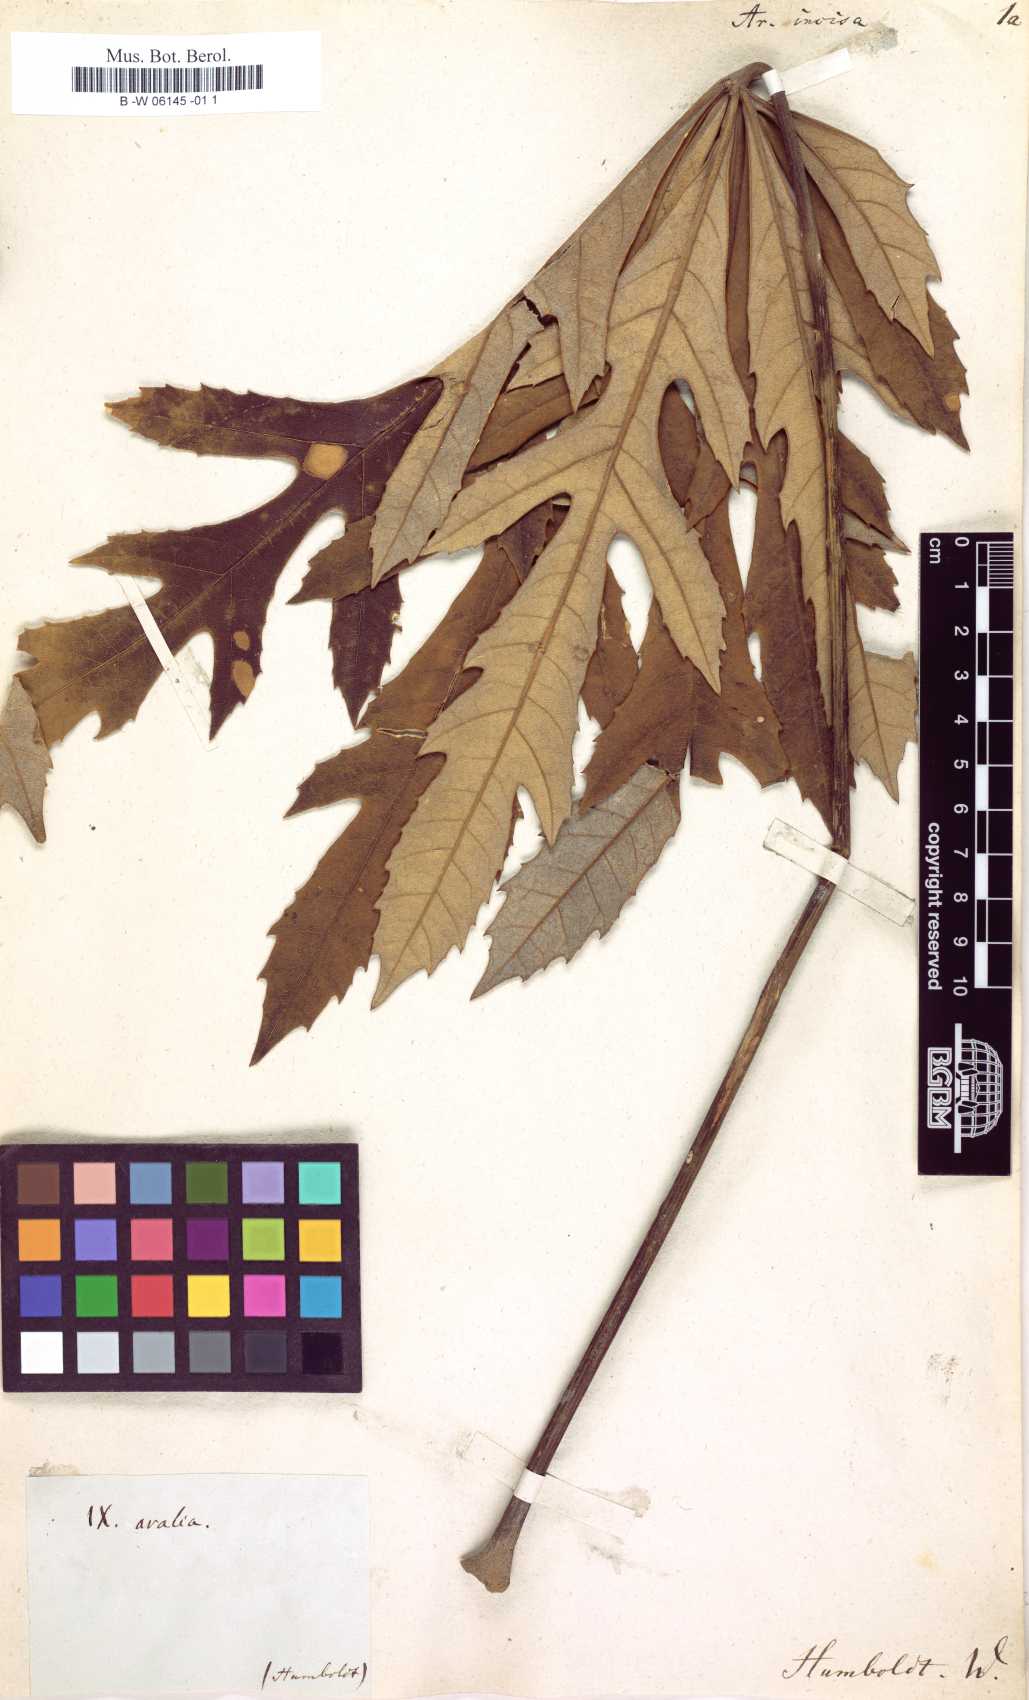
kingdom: Plantae
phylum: Tracheophyta
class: Magnoliopsida
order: Apiales
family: Araliaceae
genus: Oreopanax
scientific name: Oreopanax
